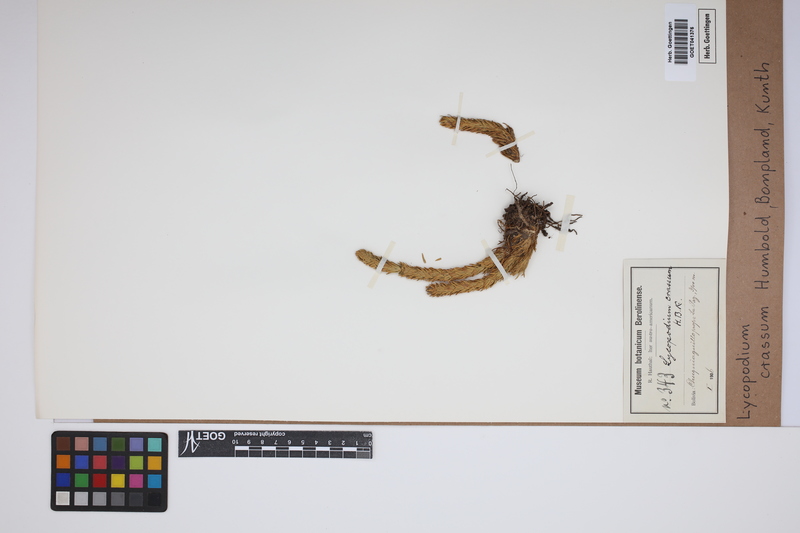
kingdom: Plantae
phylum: Tracheophyta
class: Lycopodiopsida
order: Lycopodiales
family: Lycopodiaceae
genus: Phlegmariurus
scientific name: Phlegmariurus crassus
